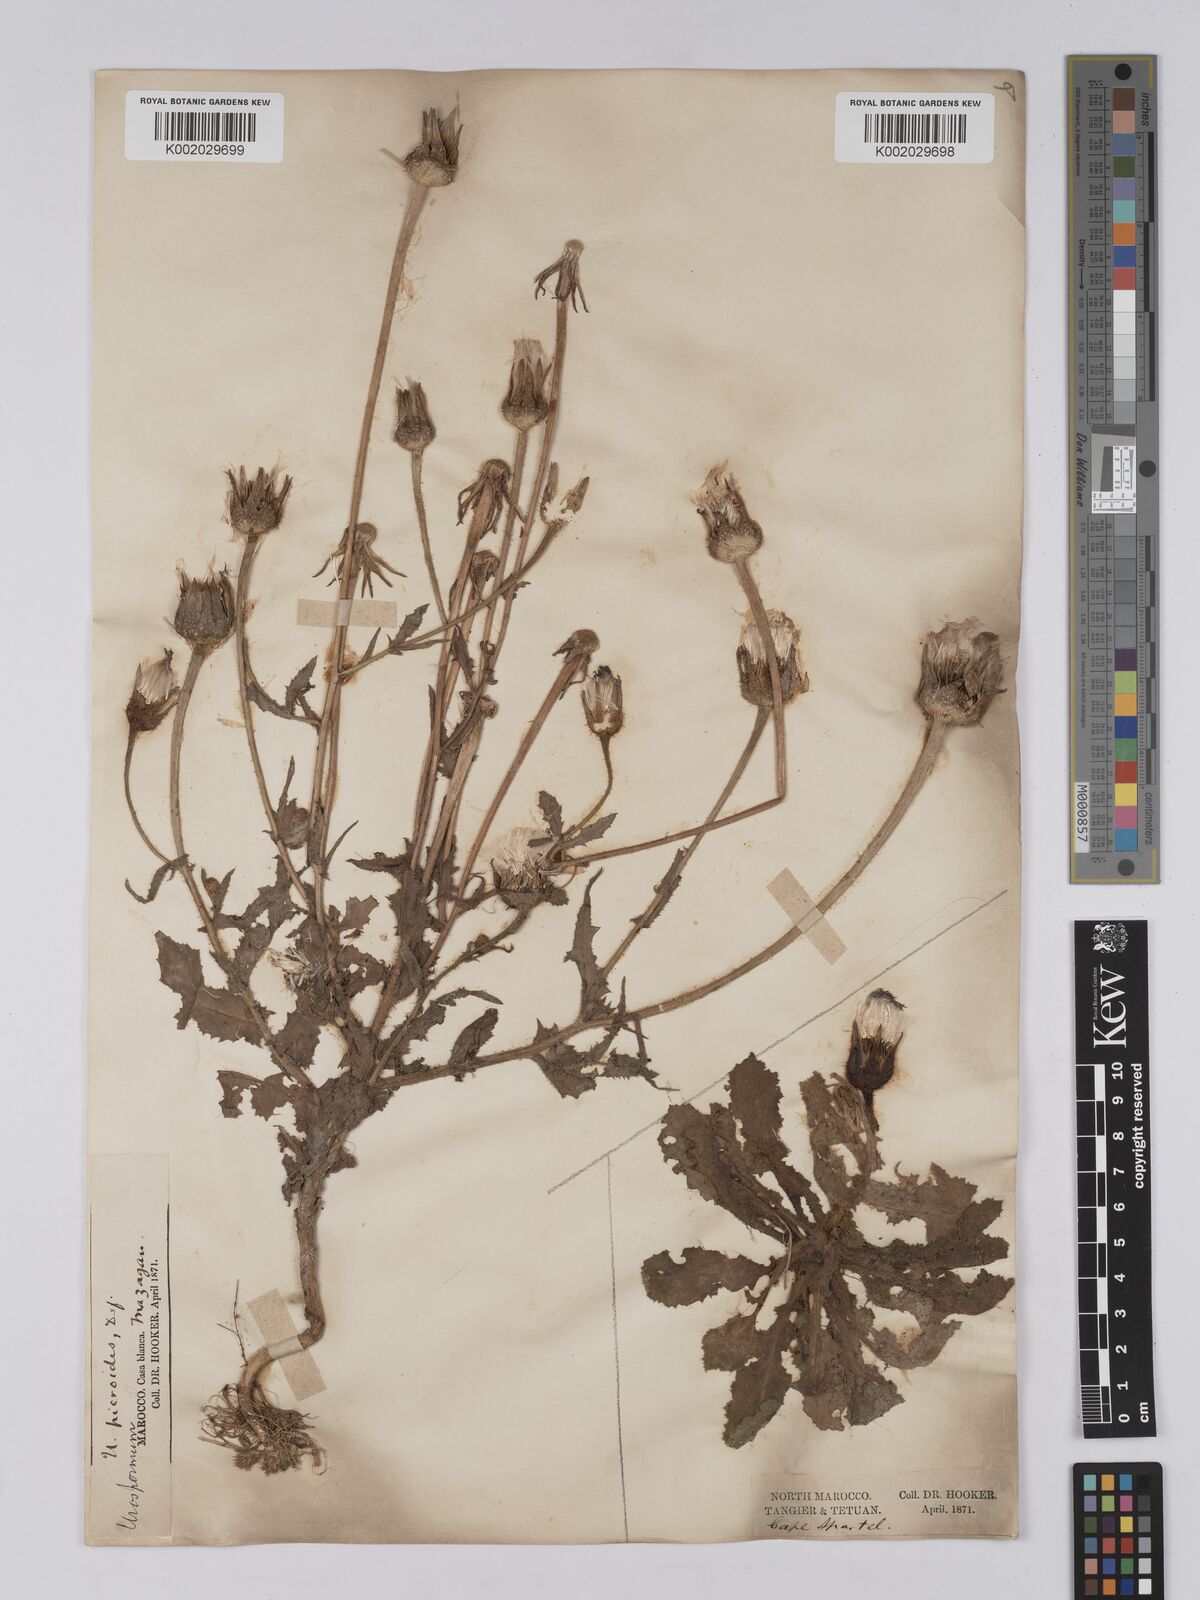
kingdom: Plantae
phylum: Tracheophyta
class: Magnoliopsida
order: Asterales
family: Asteraceae
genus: Urospermum
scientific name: Urospermum picroides
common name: False hawkbit
